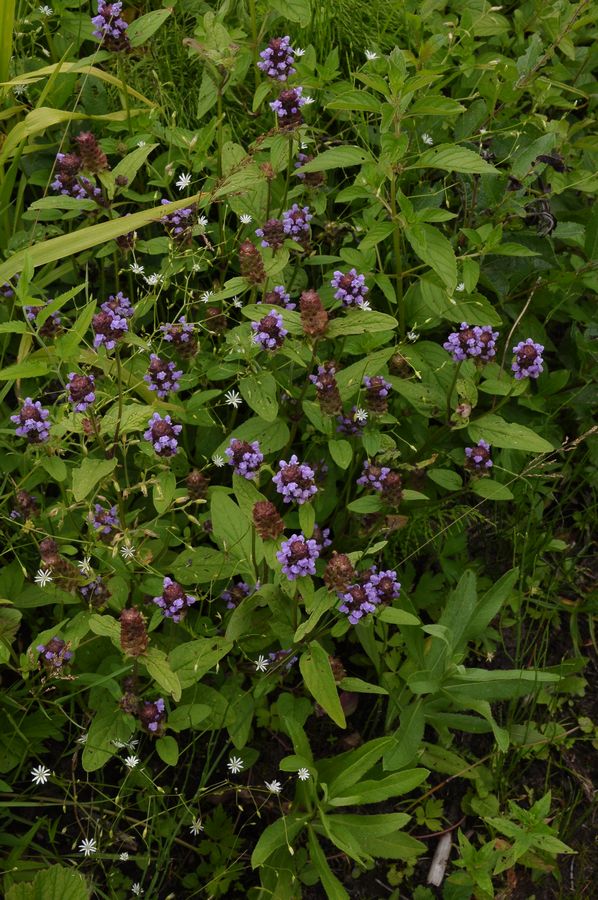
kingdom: Plantae
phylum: Tracheophyta
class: Magnoliopsida
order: Lamiales
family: Lamiaceae
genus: Prunella
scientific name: Prunella vulgaris
